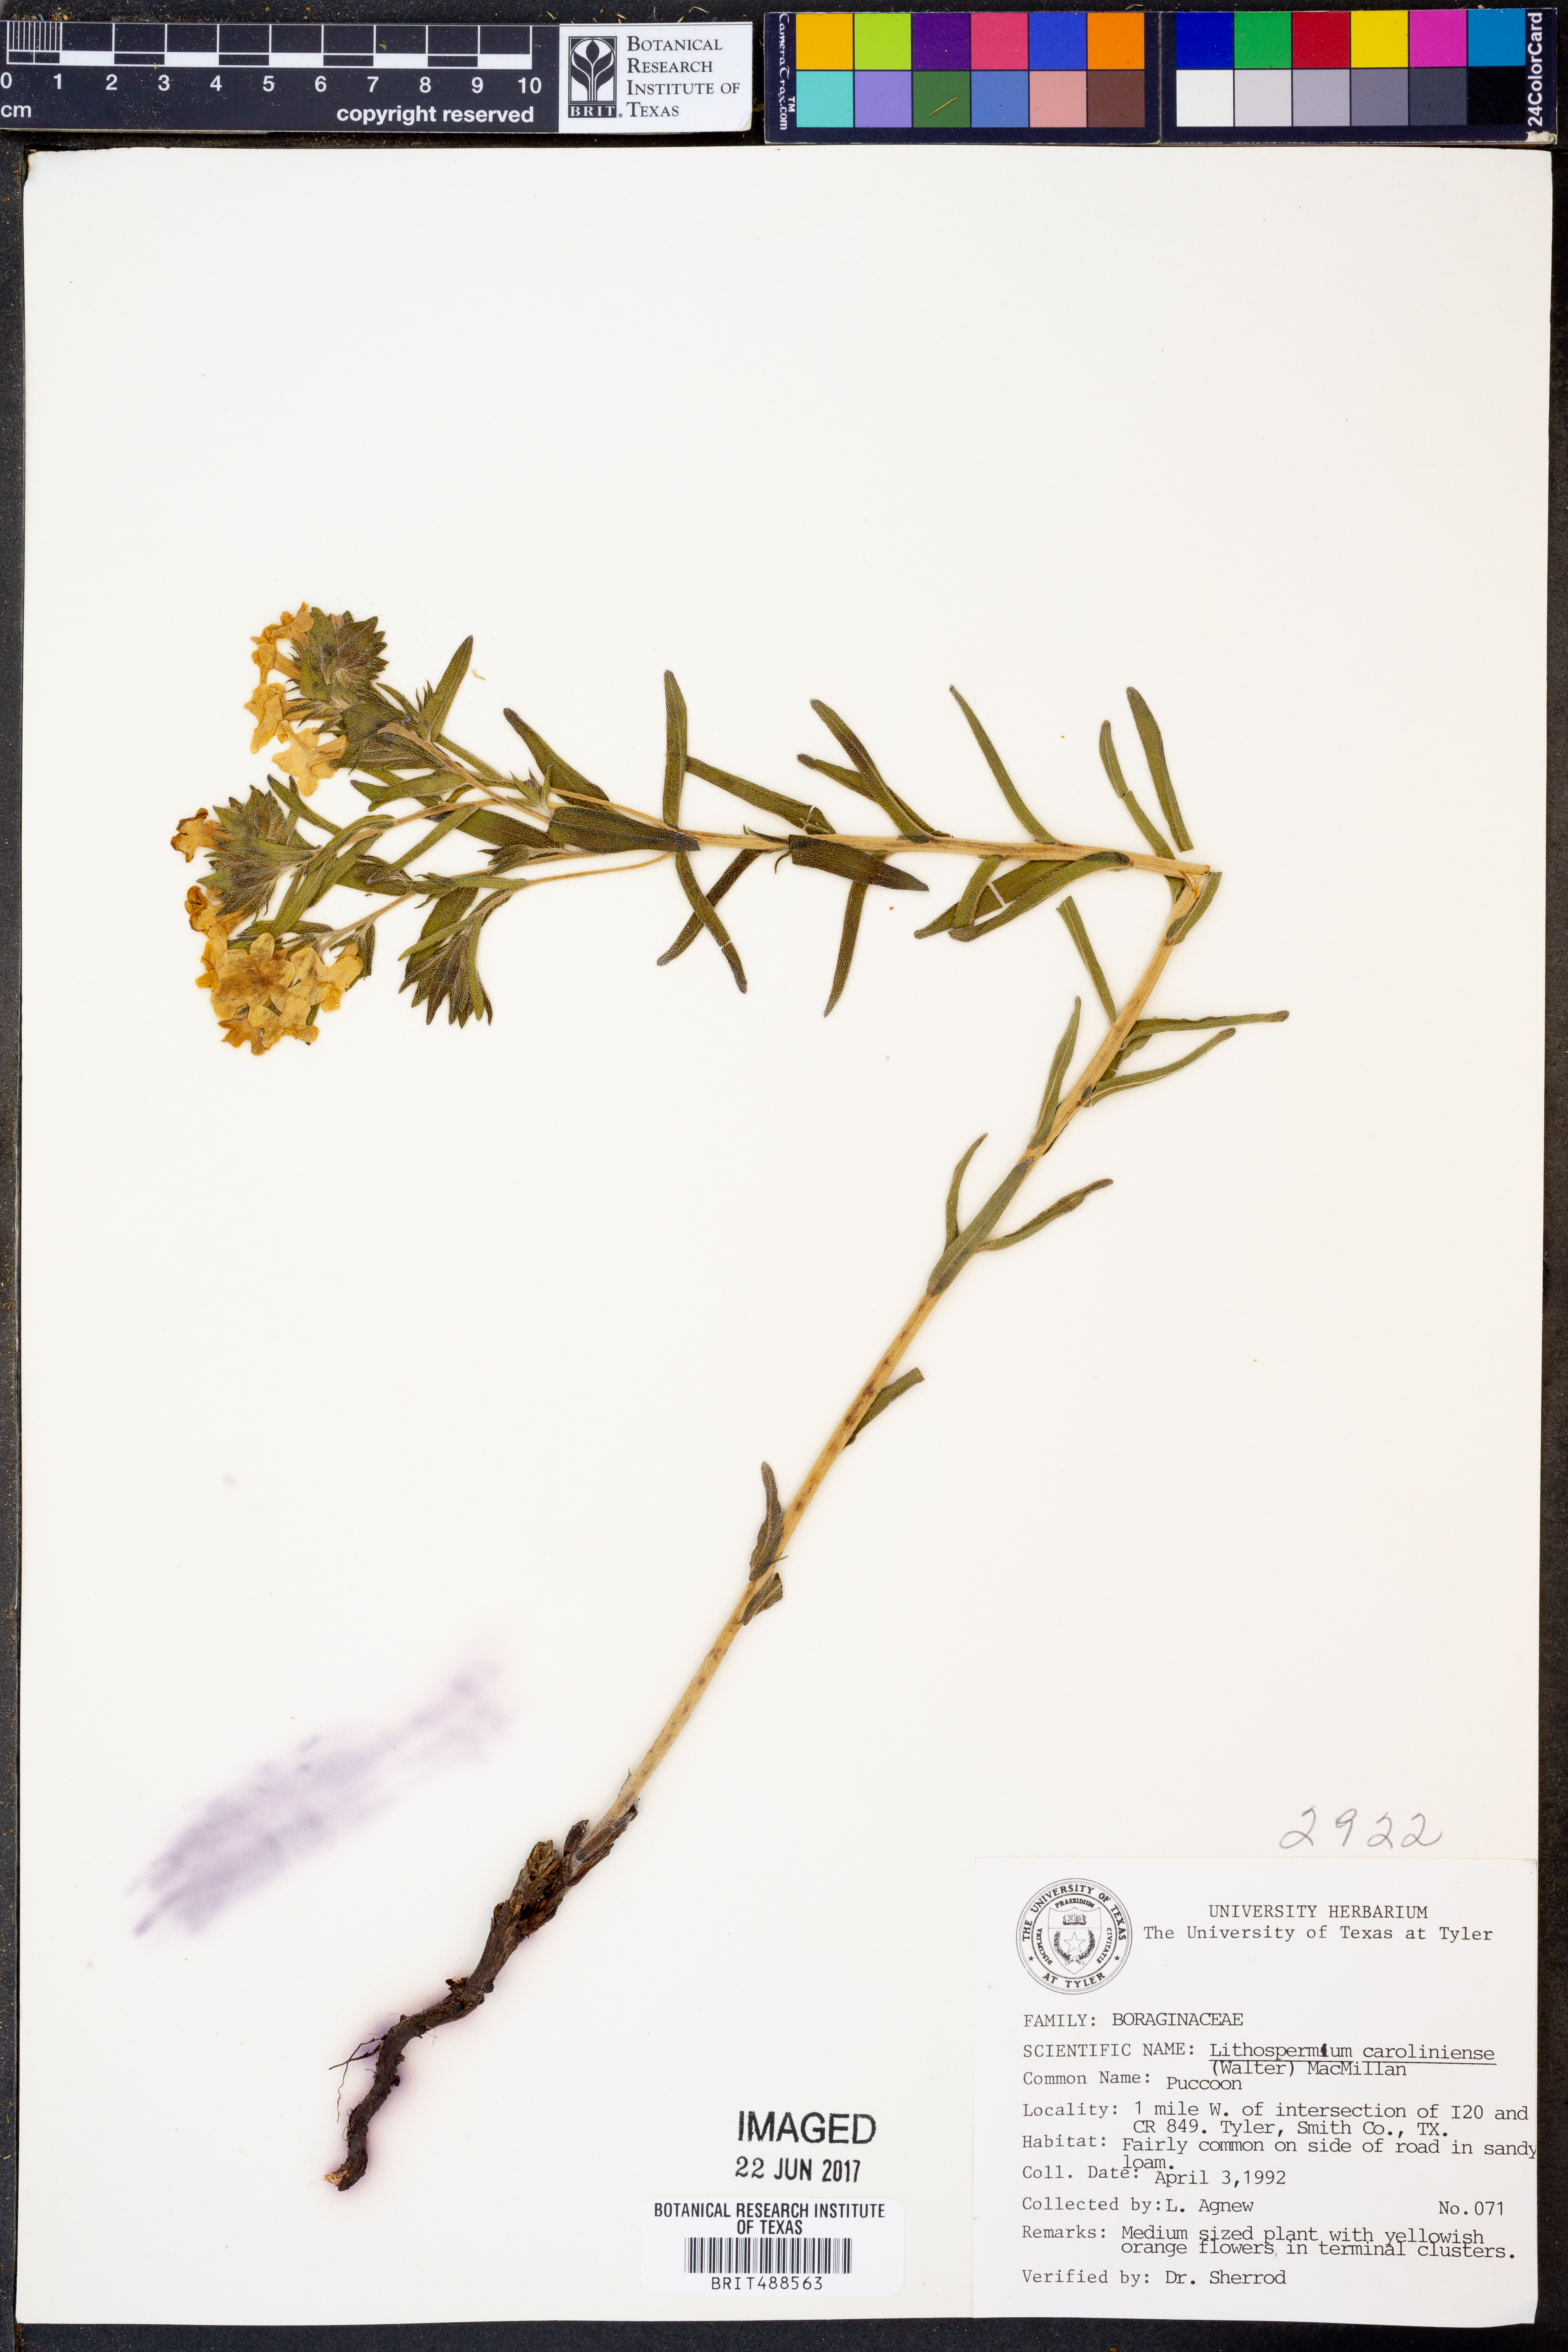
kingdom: Plantae
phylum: Tracheophyta
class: Magnoliopsida
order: Boraginales
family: Boraginaceae
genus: Lithospermum
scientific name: Lithospermum caroliniense
